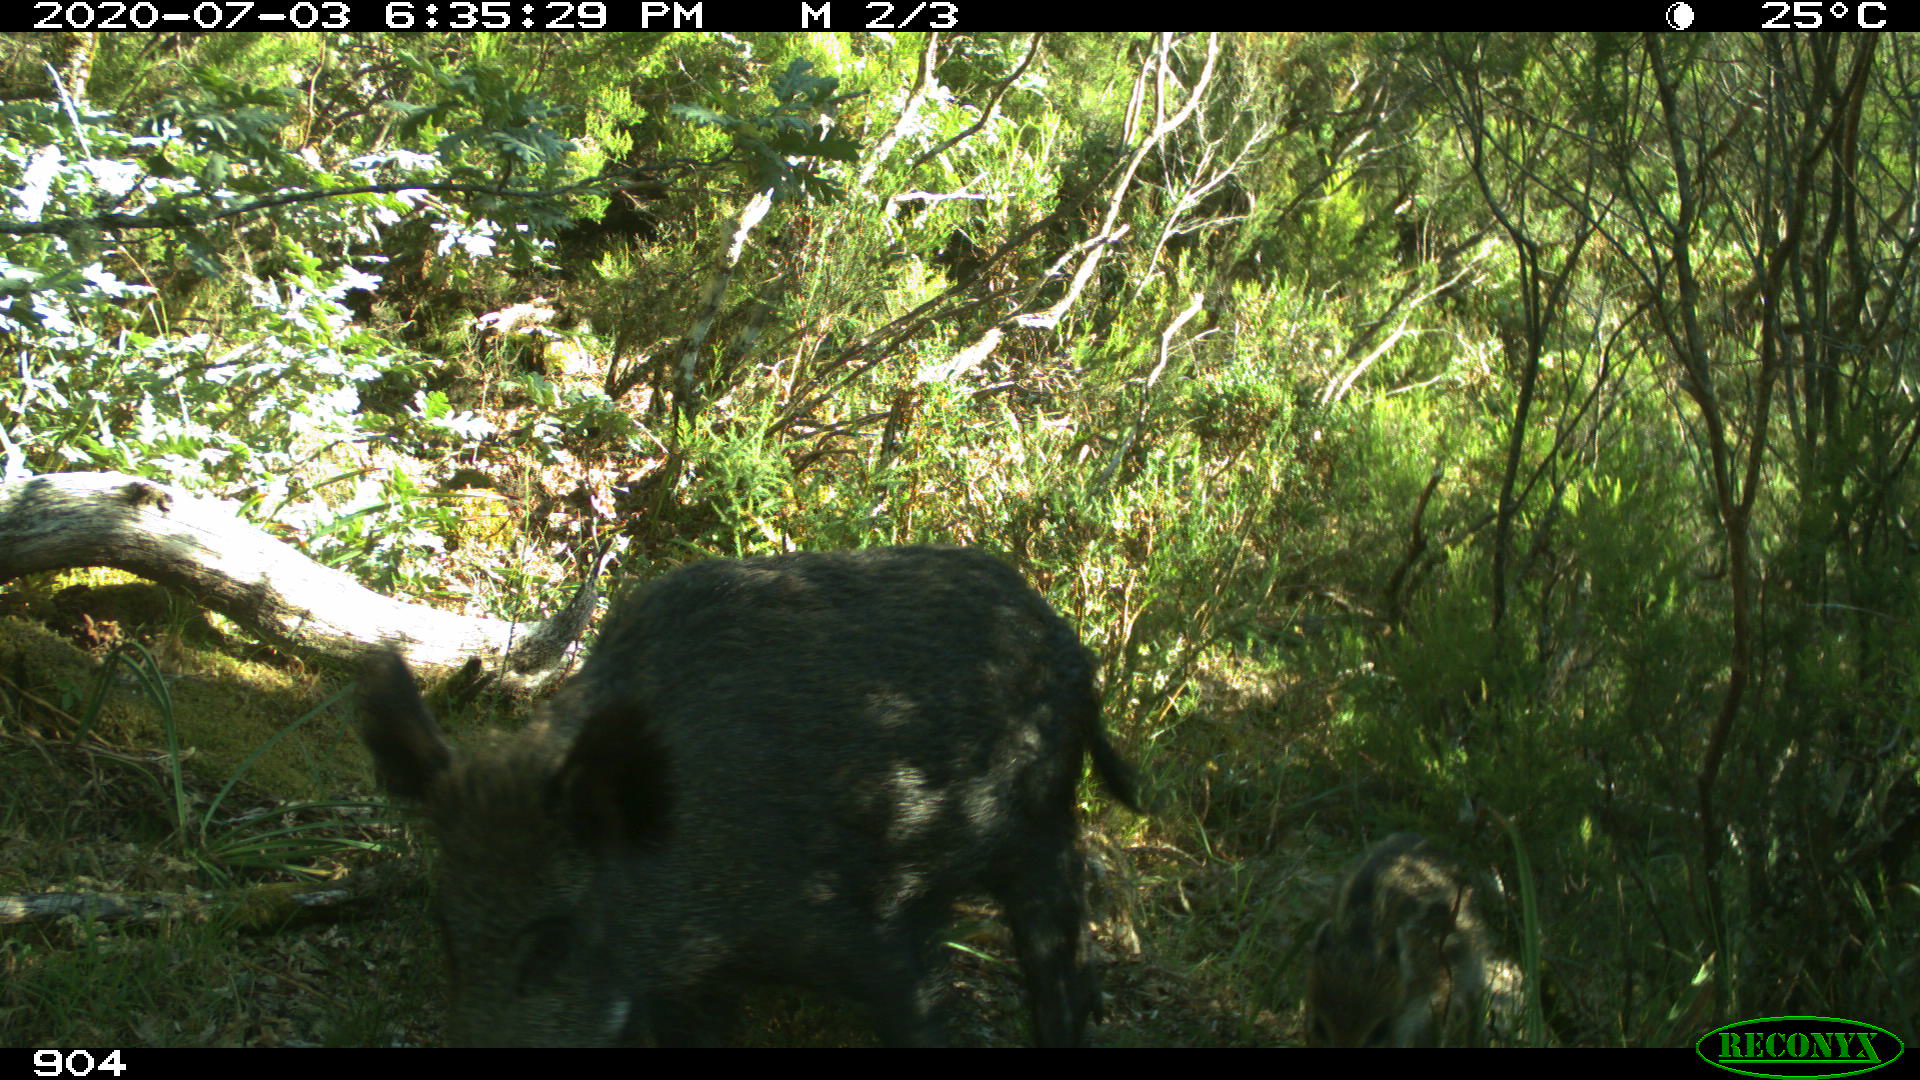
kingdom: Animalia
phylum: Chordata
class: Mammalia
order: Artiodactyla
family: Suidae
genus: Sus
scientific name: Sus scrofa
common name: Wild boar
